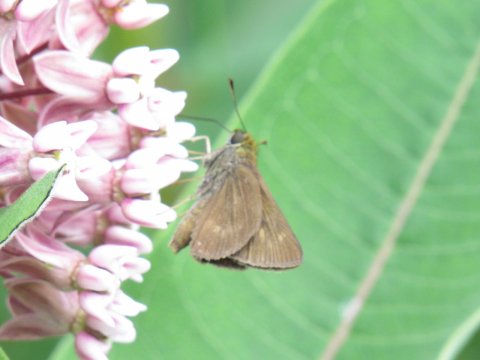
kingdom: Animalia
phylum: Arthropoda
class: Insecta
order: Lepidoptera
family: Hesperiidae
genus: Polites
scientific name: Polites egeremet
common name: Northern Broken-Dash
